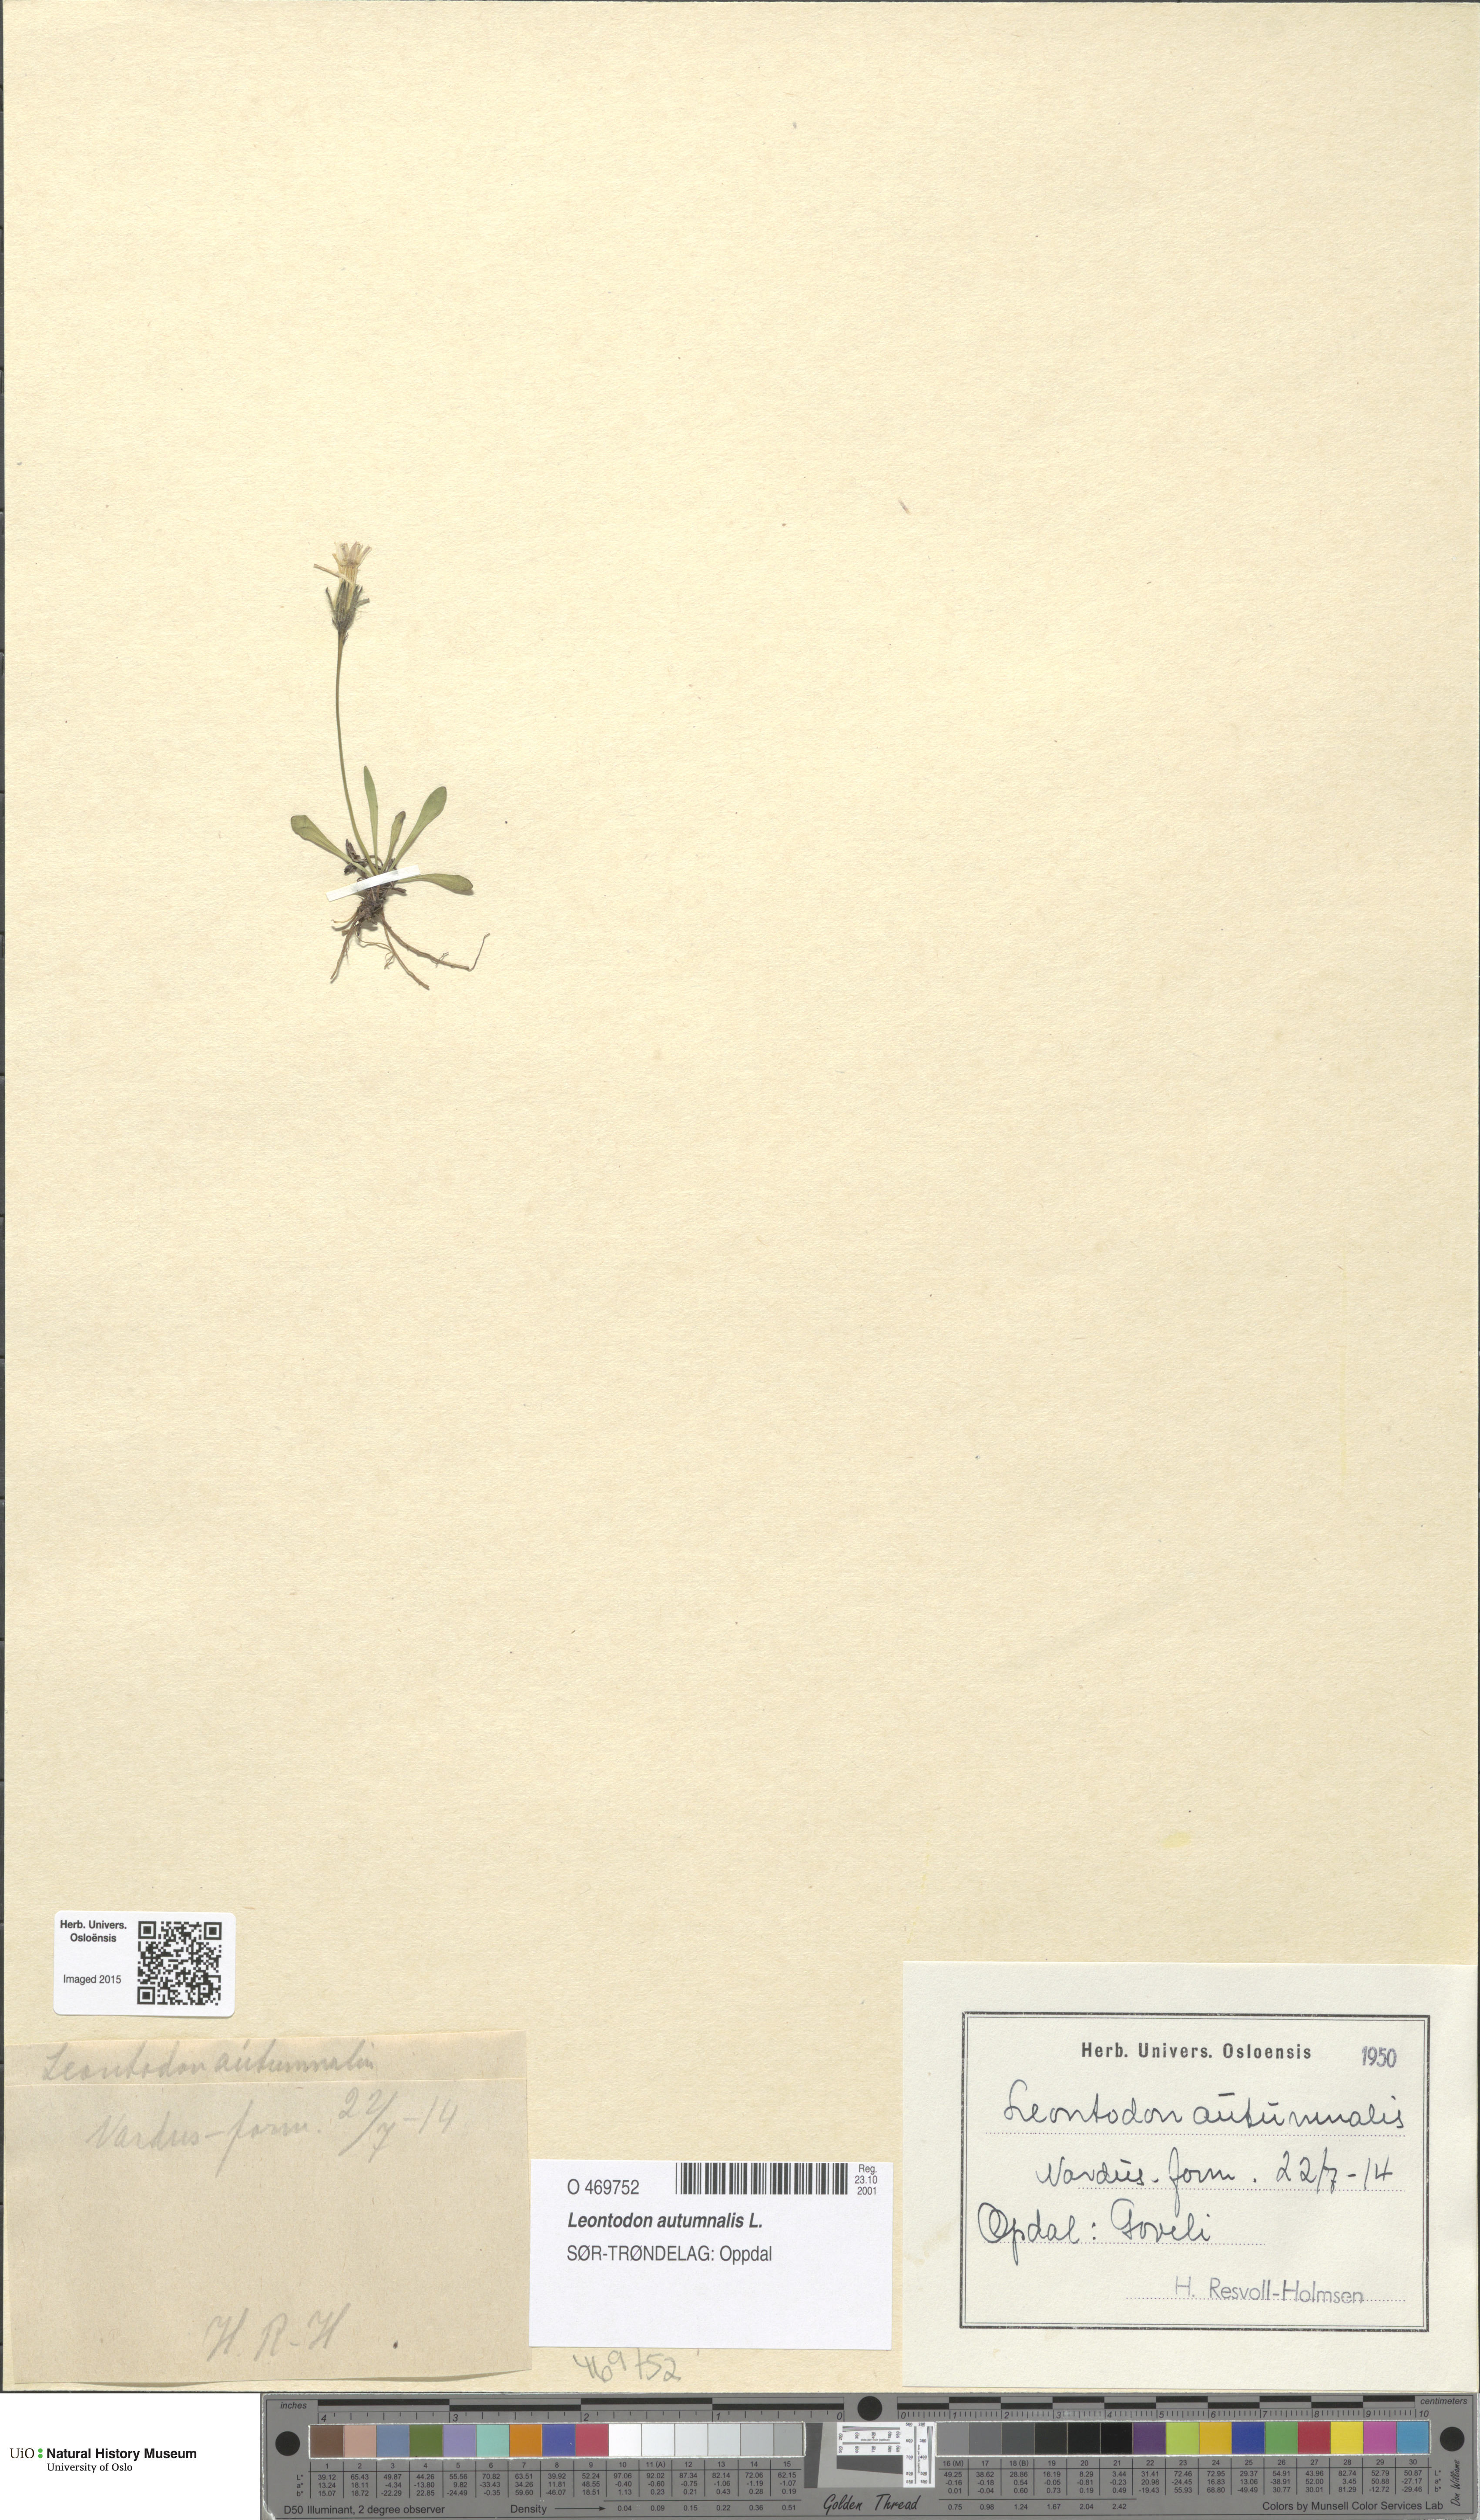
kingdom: Plantae
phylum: Tracheophyta
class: Magnoliopsida
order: Asterales
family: Asteraceae
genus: Scorzoneroides
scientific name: Scorzoneroides autumnalis
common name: Autumn hawkbit
